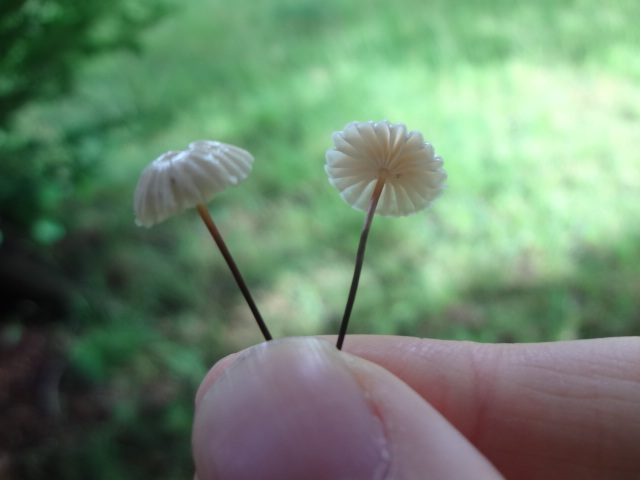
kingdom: Fungi
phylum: Basidiomycota
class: Agaricomycetes
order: Agaricales
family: Marasmiaceae
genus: Marasmius
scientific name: Marasmius rotula
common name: hjul-bruskhat
